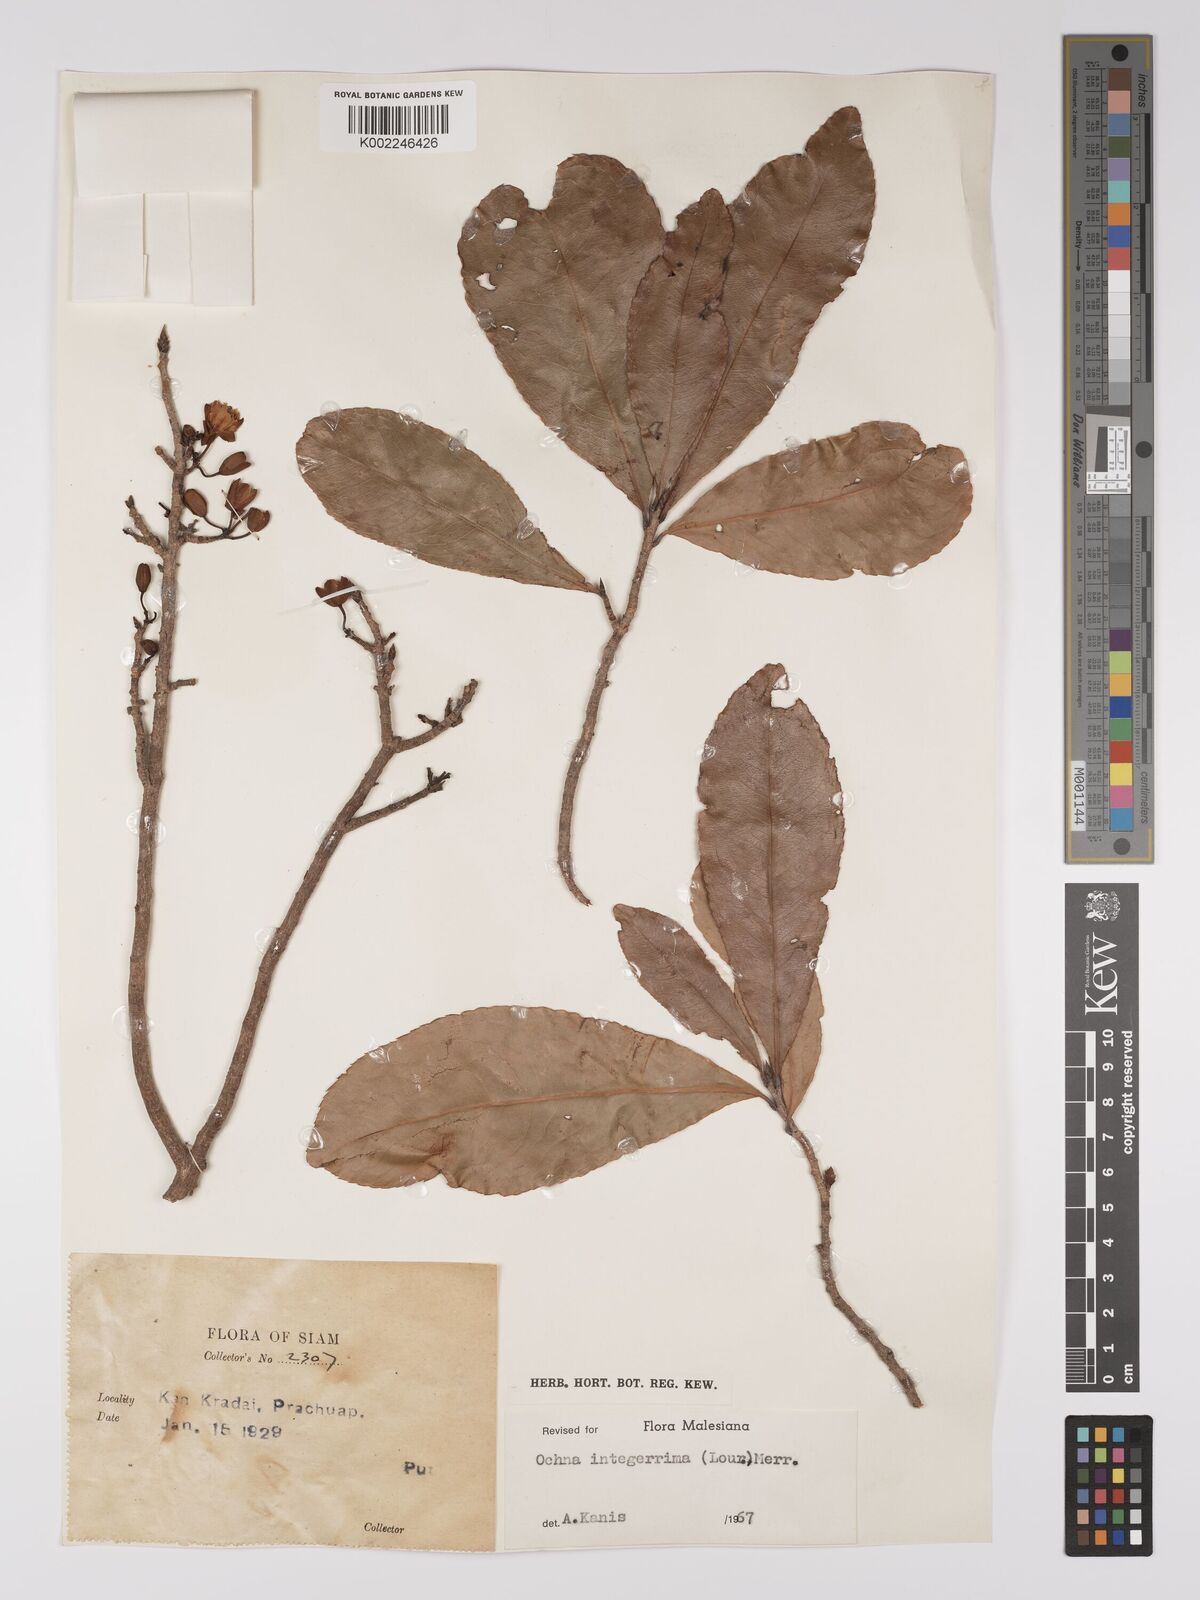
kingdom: Plantae
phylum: Tracheophyta
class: Magnoliopsida
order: Malpighiales
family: Ochnaceae
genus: Ochna
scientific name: Ochna integerrima
